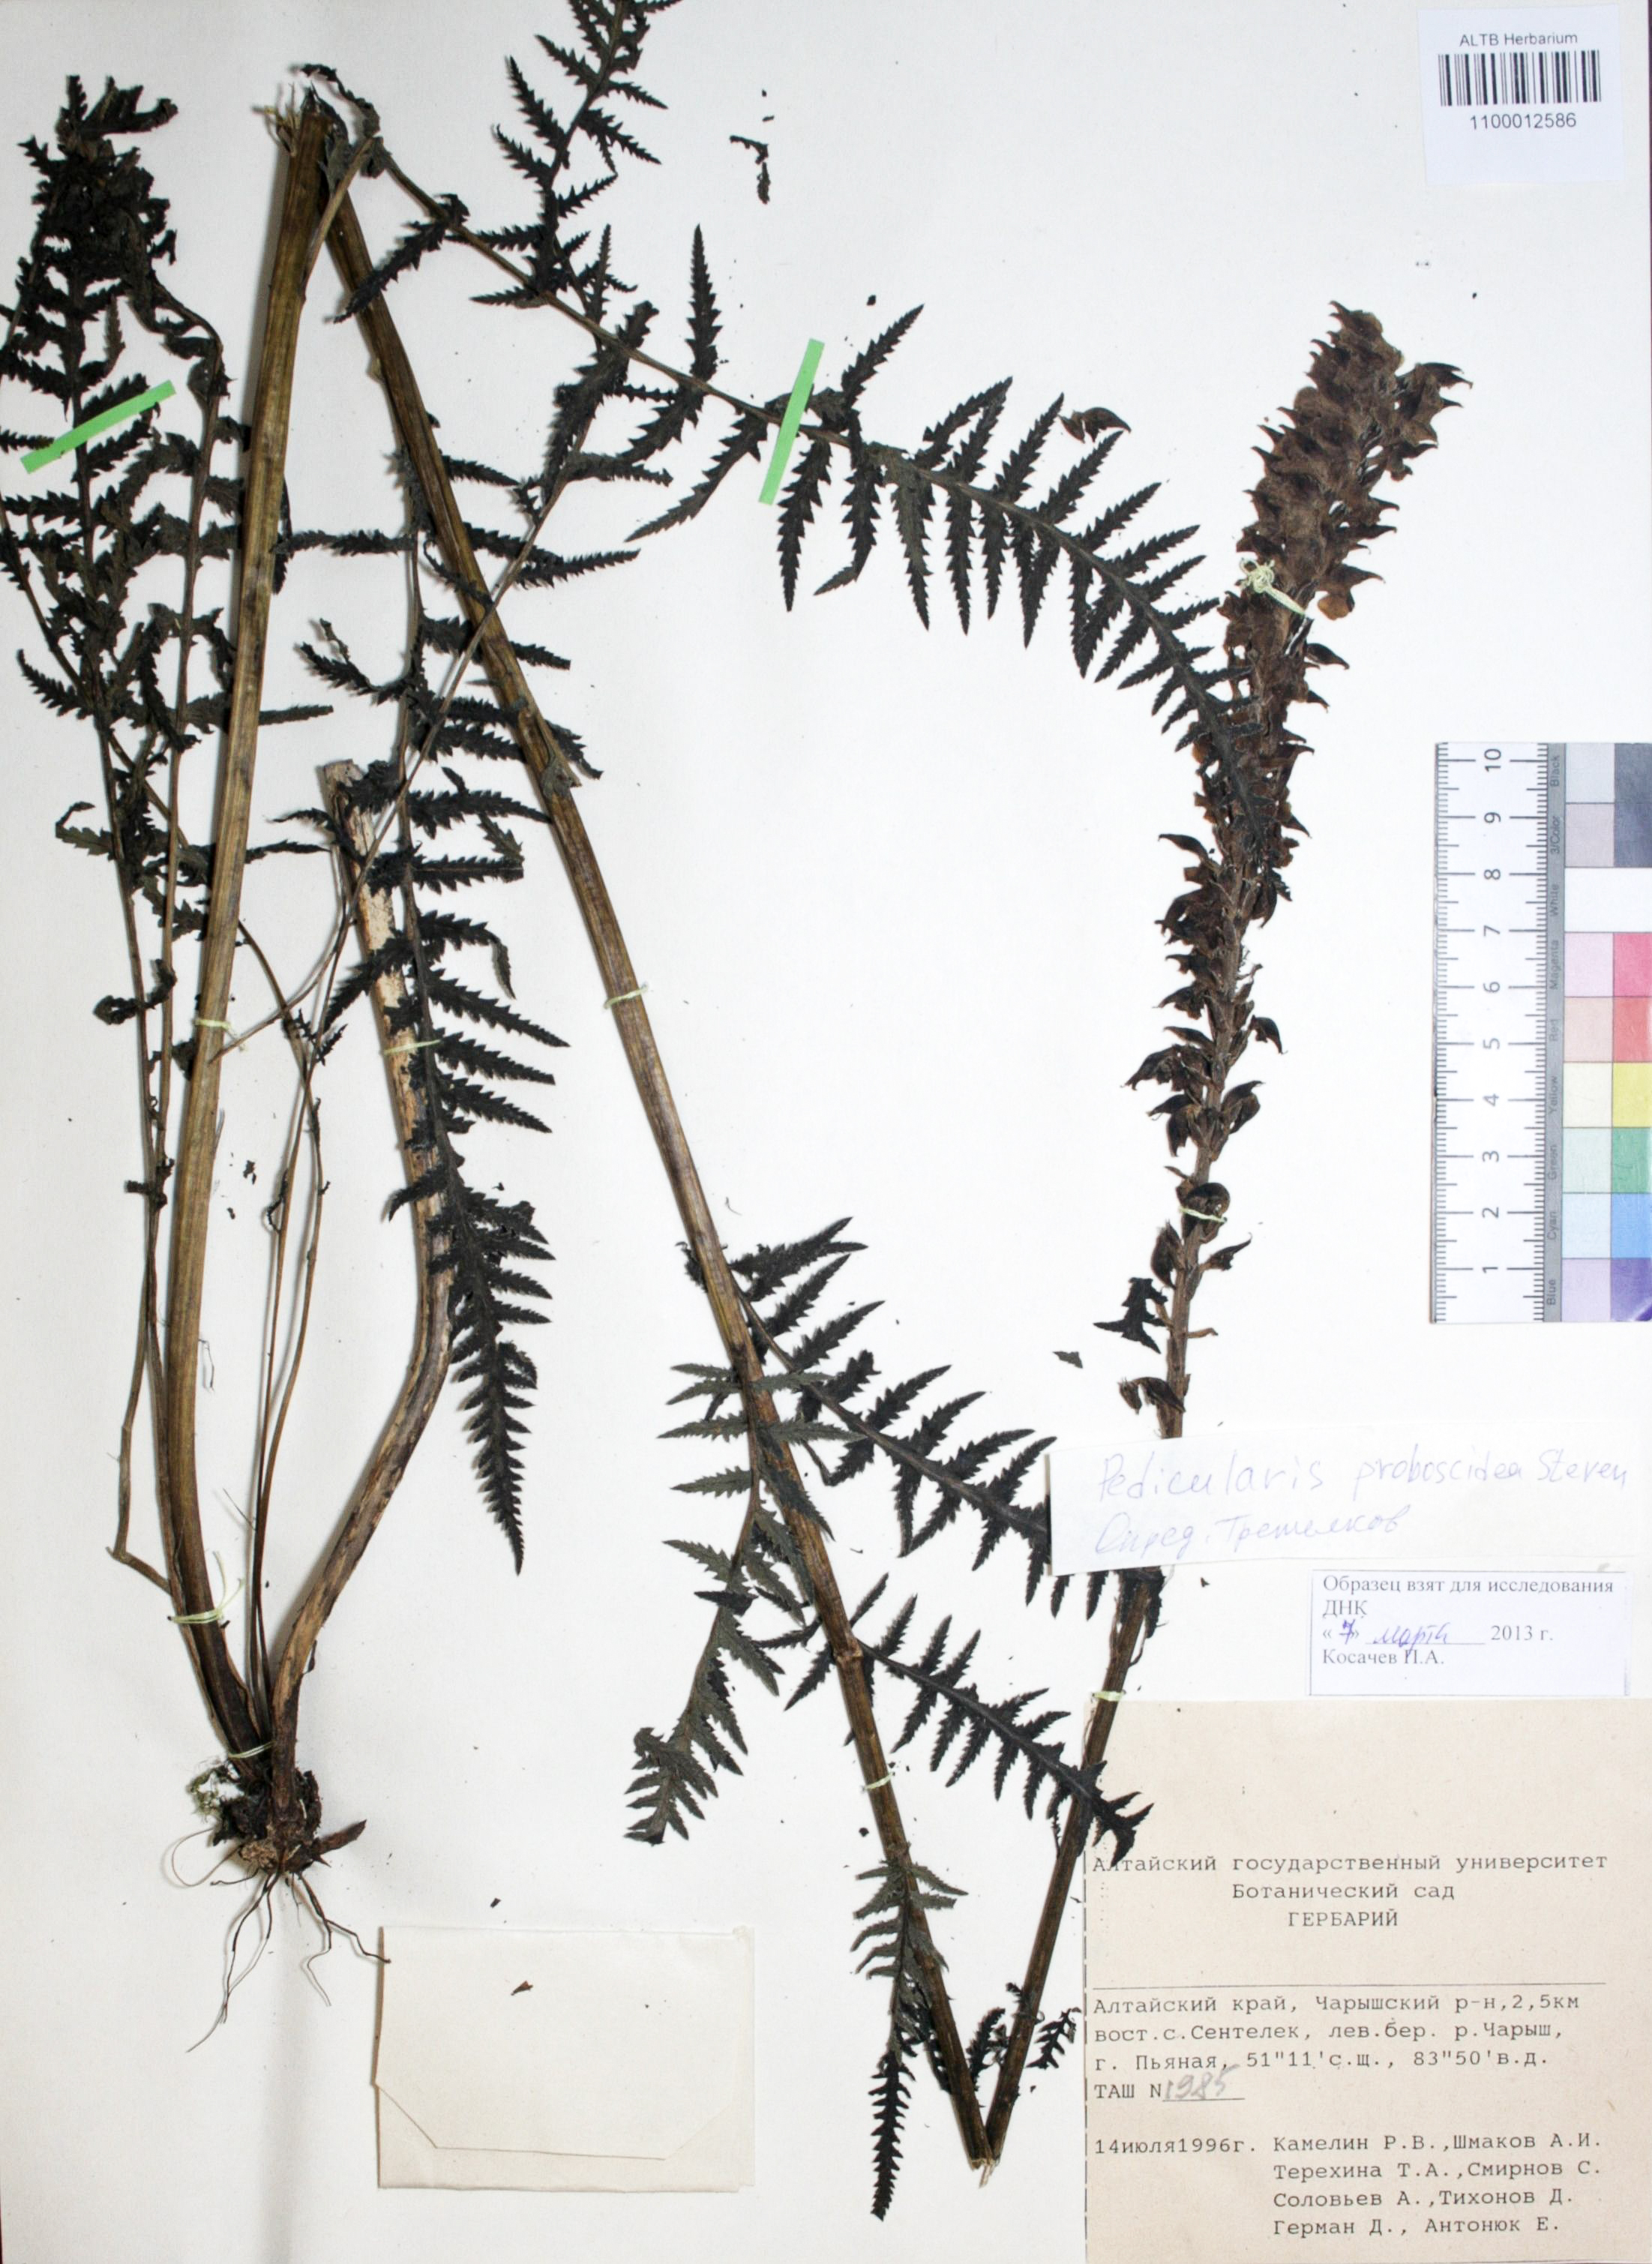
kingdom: Plantae
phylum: Tracheophyta
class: Magnoliopsida
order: Lamiales
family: Orobanchaceae
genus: Pedicularis
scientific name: Pedicularis proboscidea
